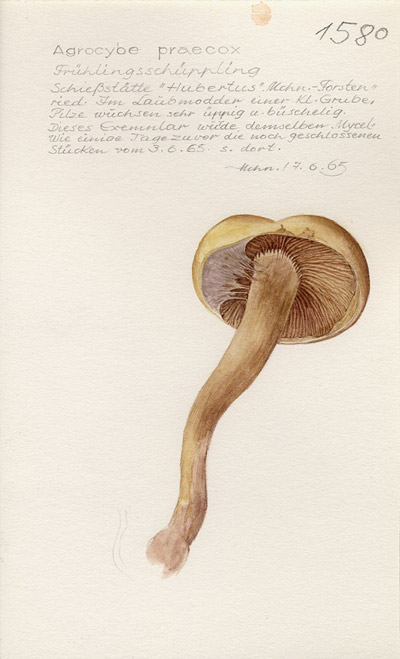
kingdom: Fungi
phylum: Basidiomycota
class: Agaricomycetes
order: Agaricales
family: Strophariaceae
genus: Agrocybe
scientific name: Agrocybe praecox
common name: Spring fieldcap
